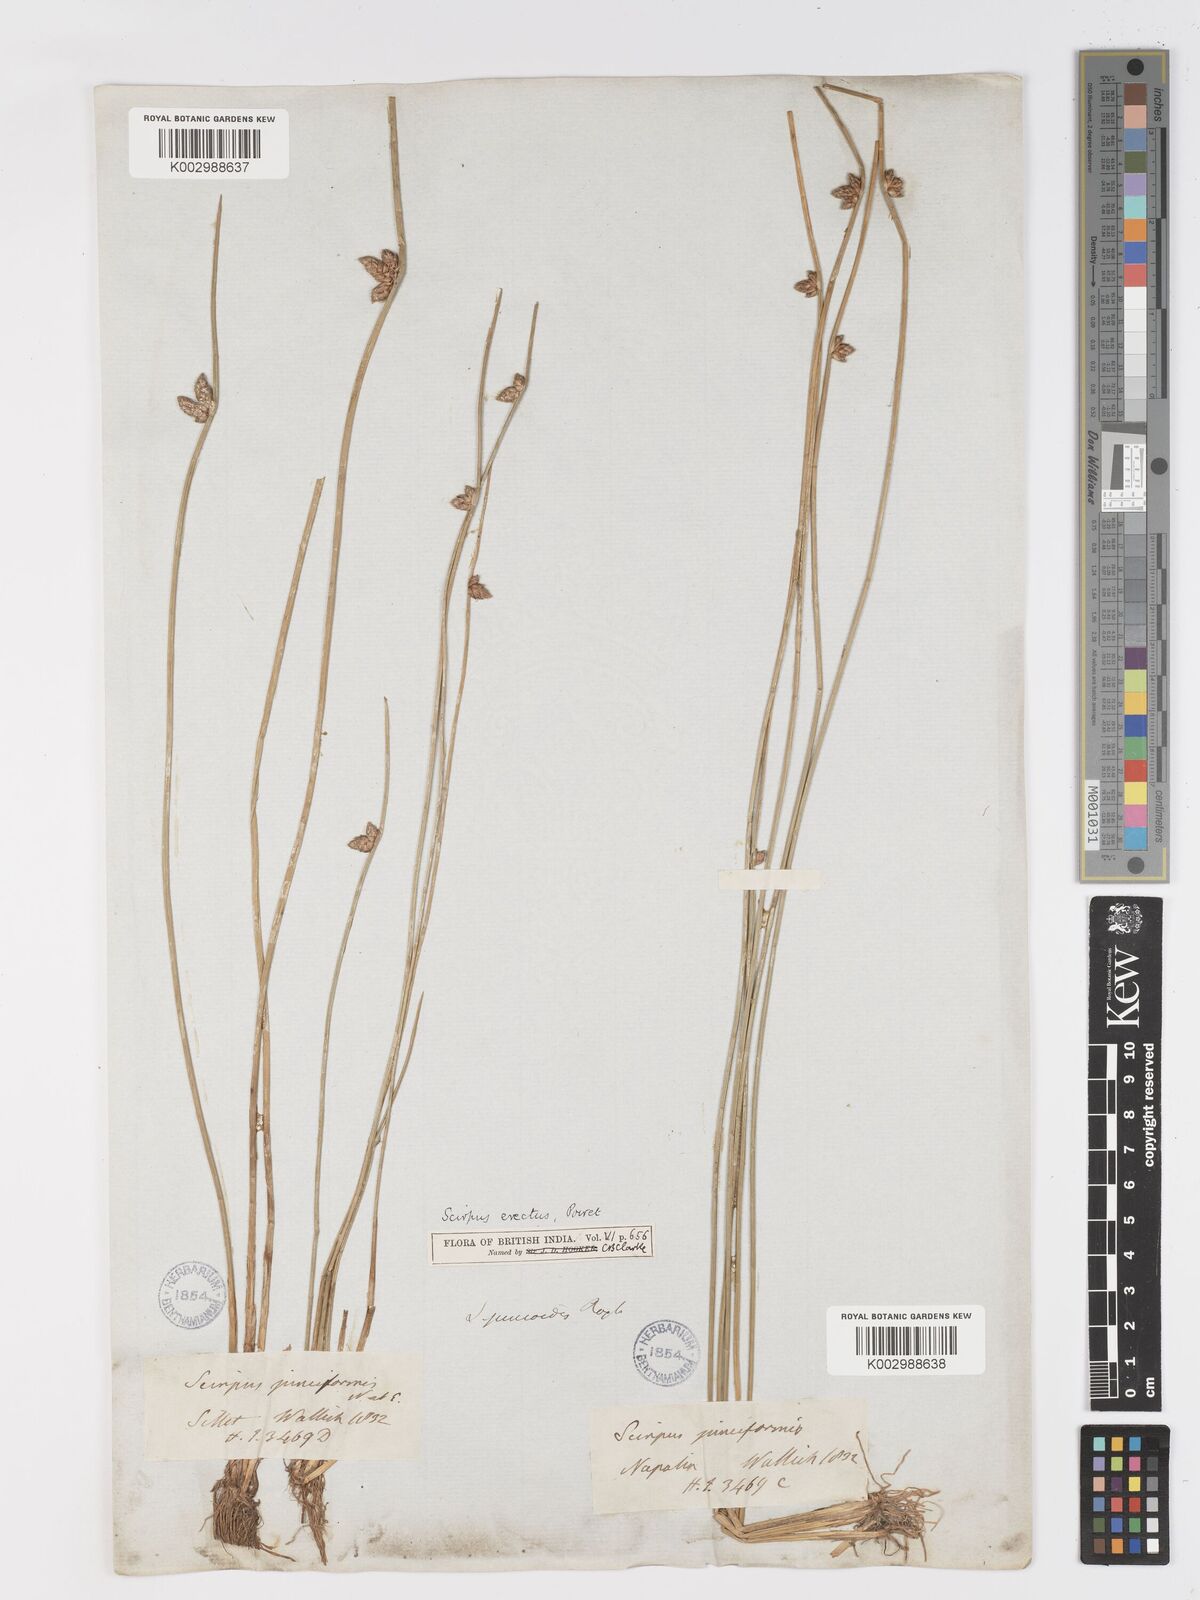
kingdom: Plantae
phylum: Tracheophyta
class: Liliopsida
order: Poales
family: Cyperaceae
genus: Schoenoplectiella
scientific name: Schoenoplectiella juncoides
